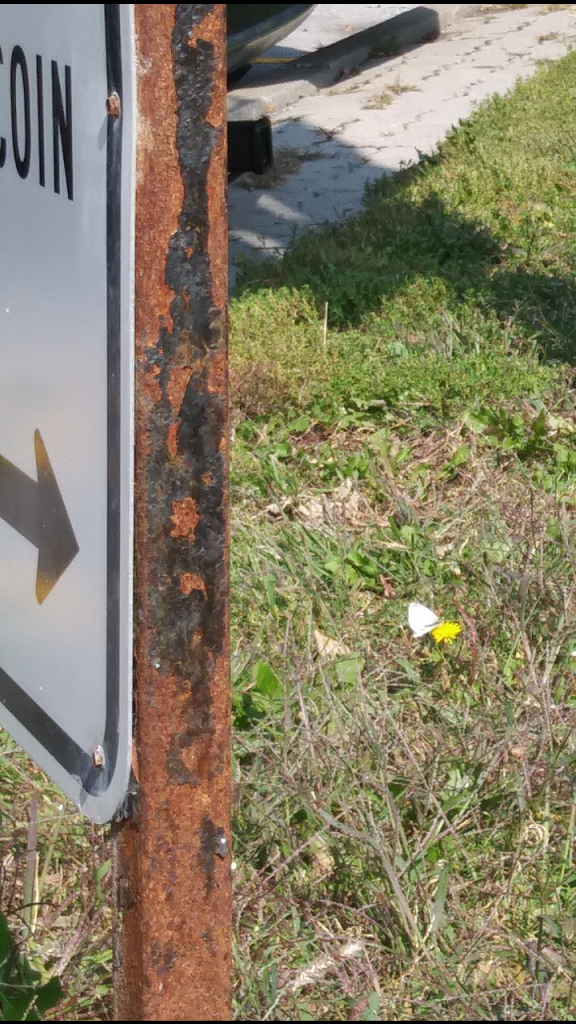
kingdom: Animalia
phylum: Arthropoda
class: Insecta
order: Lepidoptera
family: Pieridae
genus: Pieris
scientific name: Pieris rapae
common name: Cabbage White
